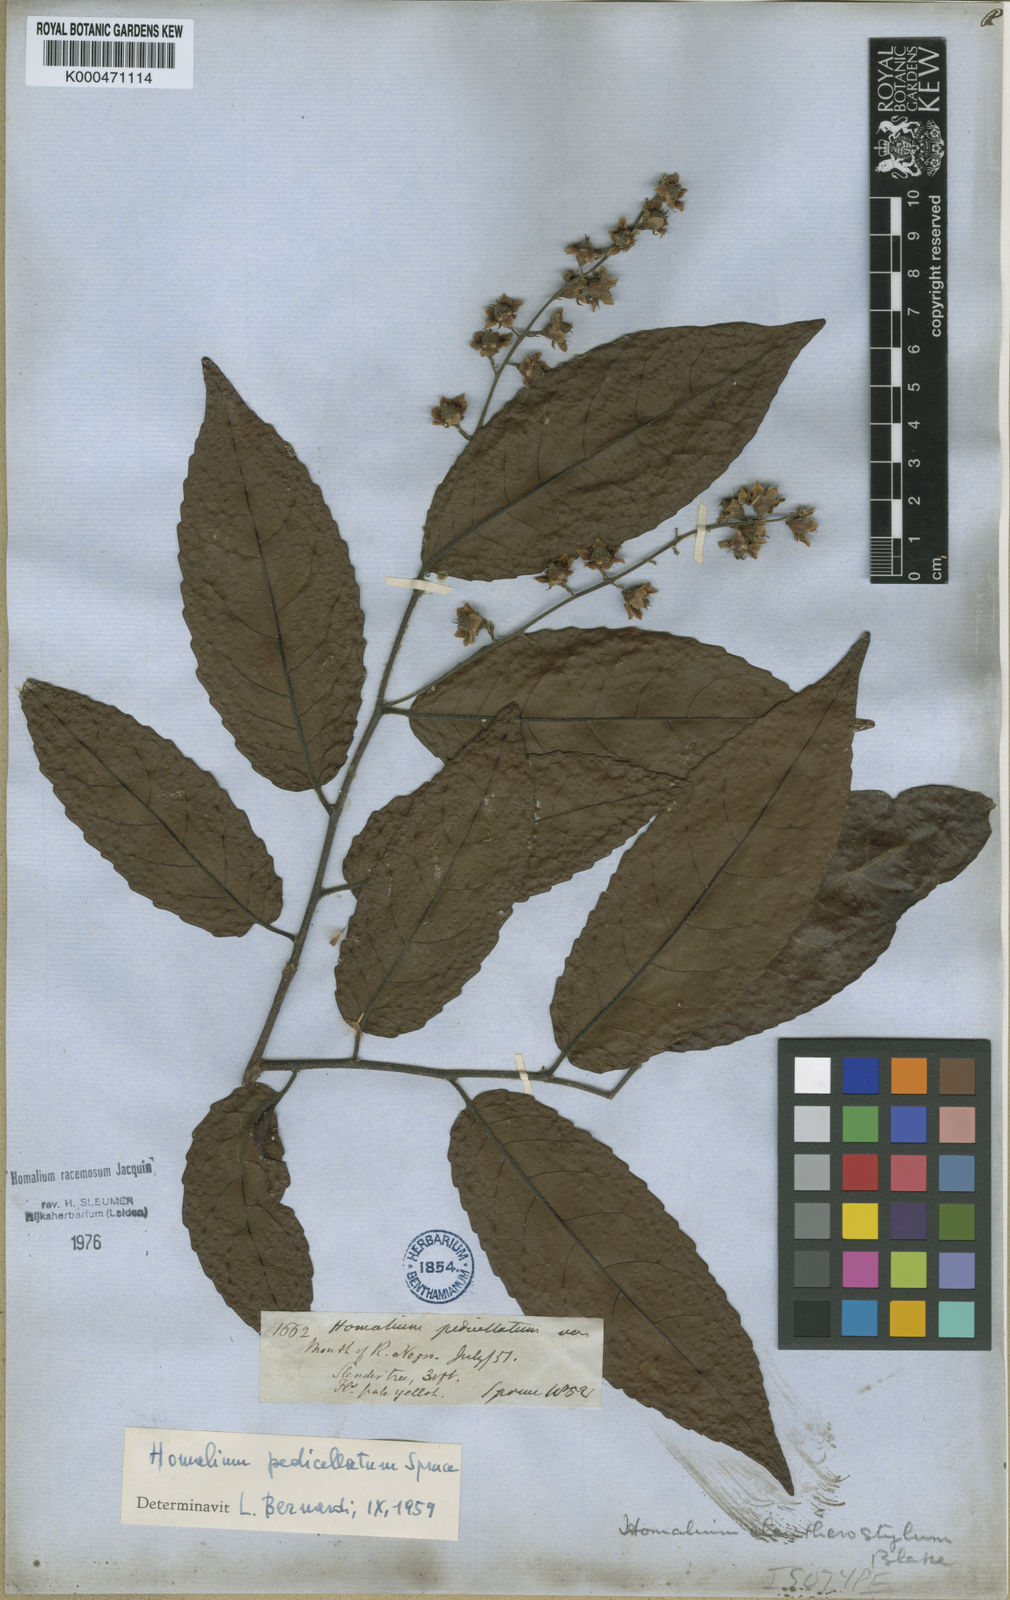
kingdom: Plantae
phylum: Tracheophyta
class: Magnoliopsida
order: Malpighiales
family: Salicaceae
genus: Homalium
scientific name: Homalium racemosum
